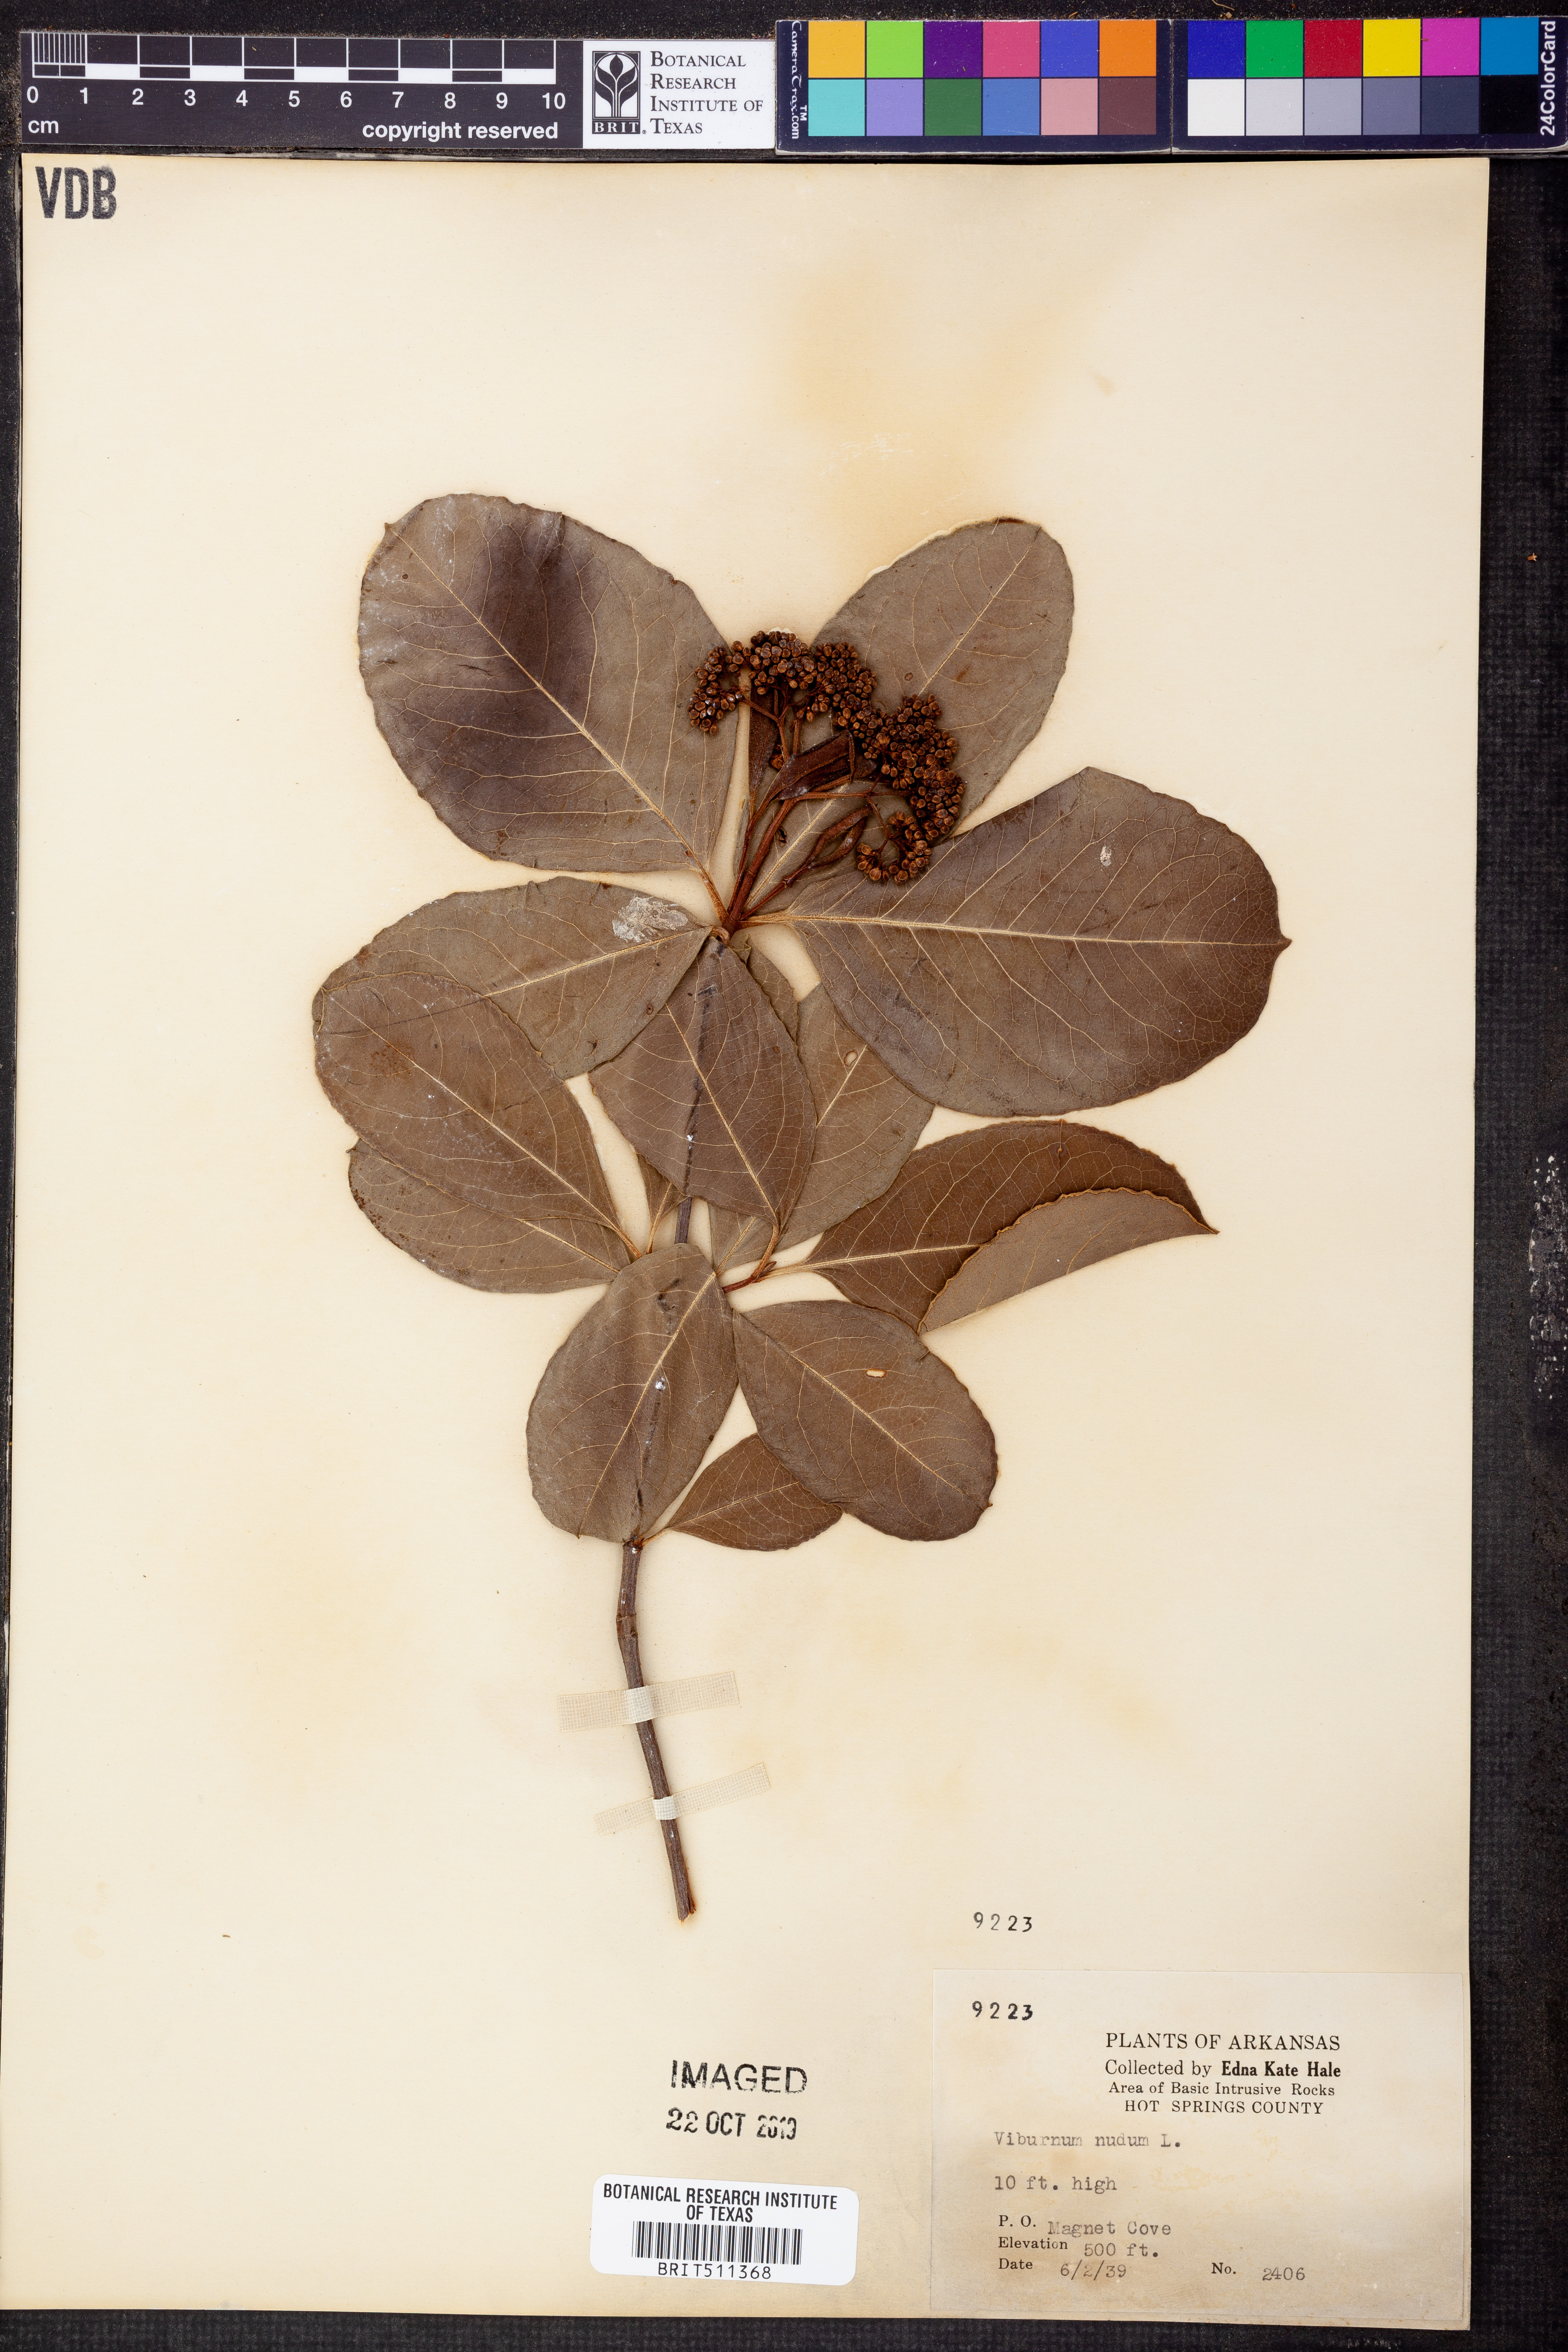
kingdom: Plantae
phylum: Tracheophyta
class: Magnoliopsida
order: Dipsacales
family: Viburnaceae
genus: Viburnum
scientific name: Viburnum nudum
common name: Possum haw
